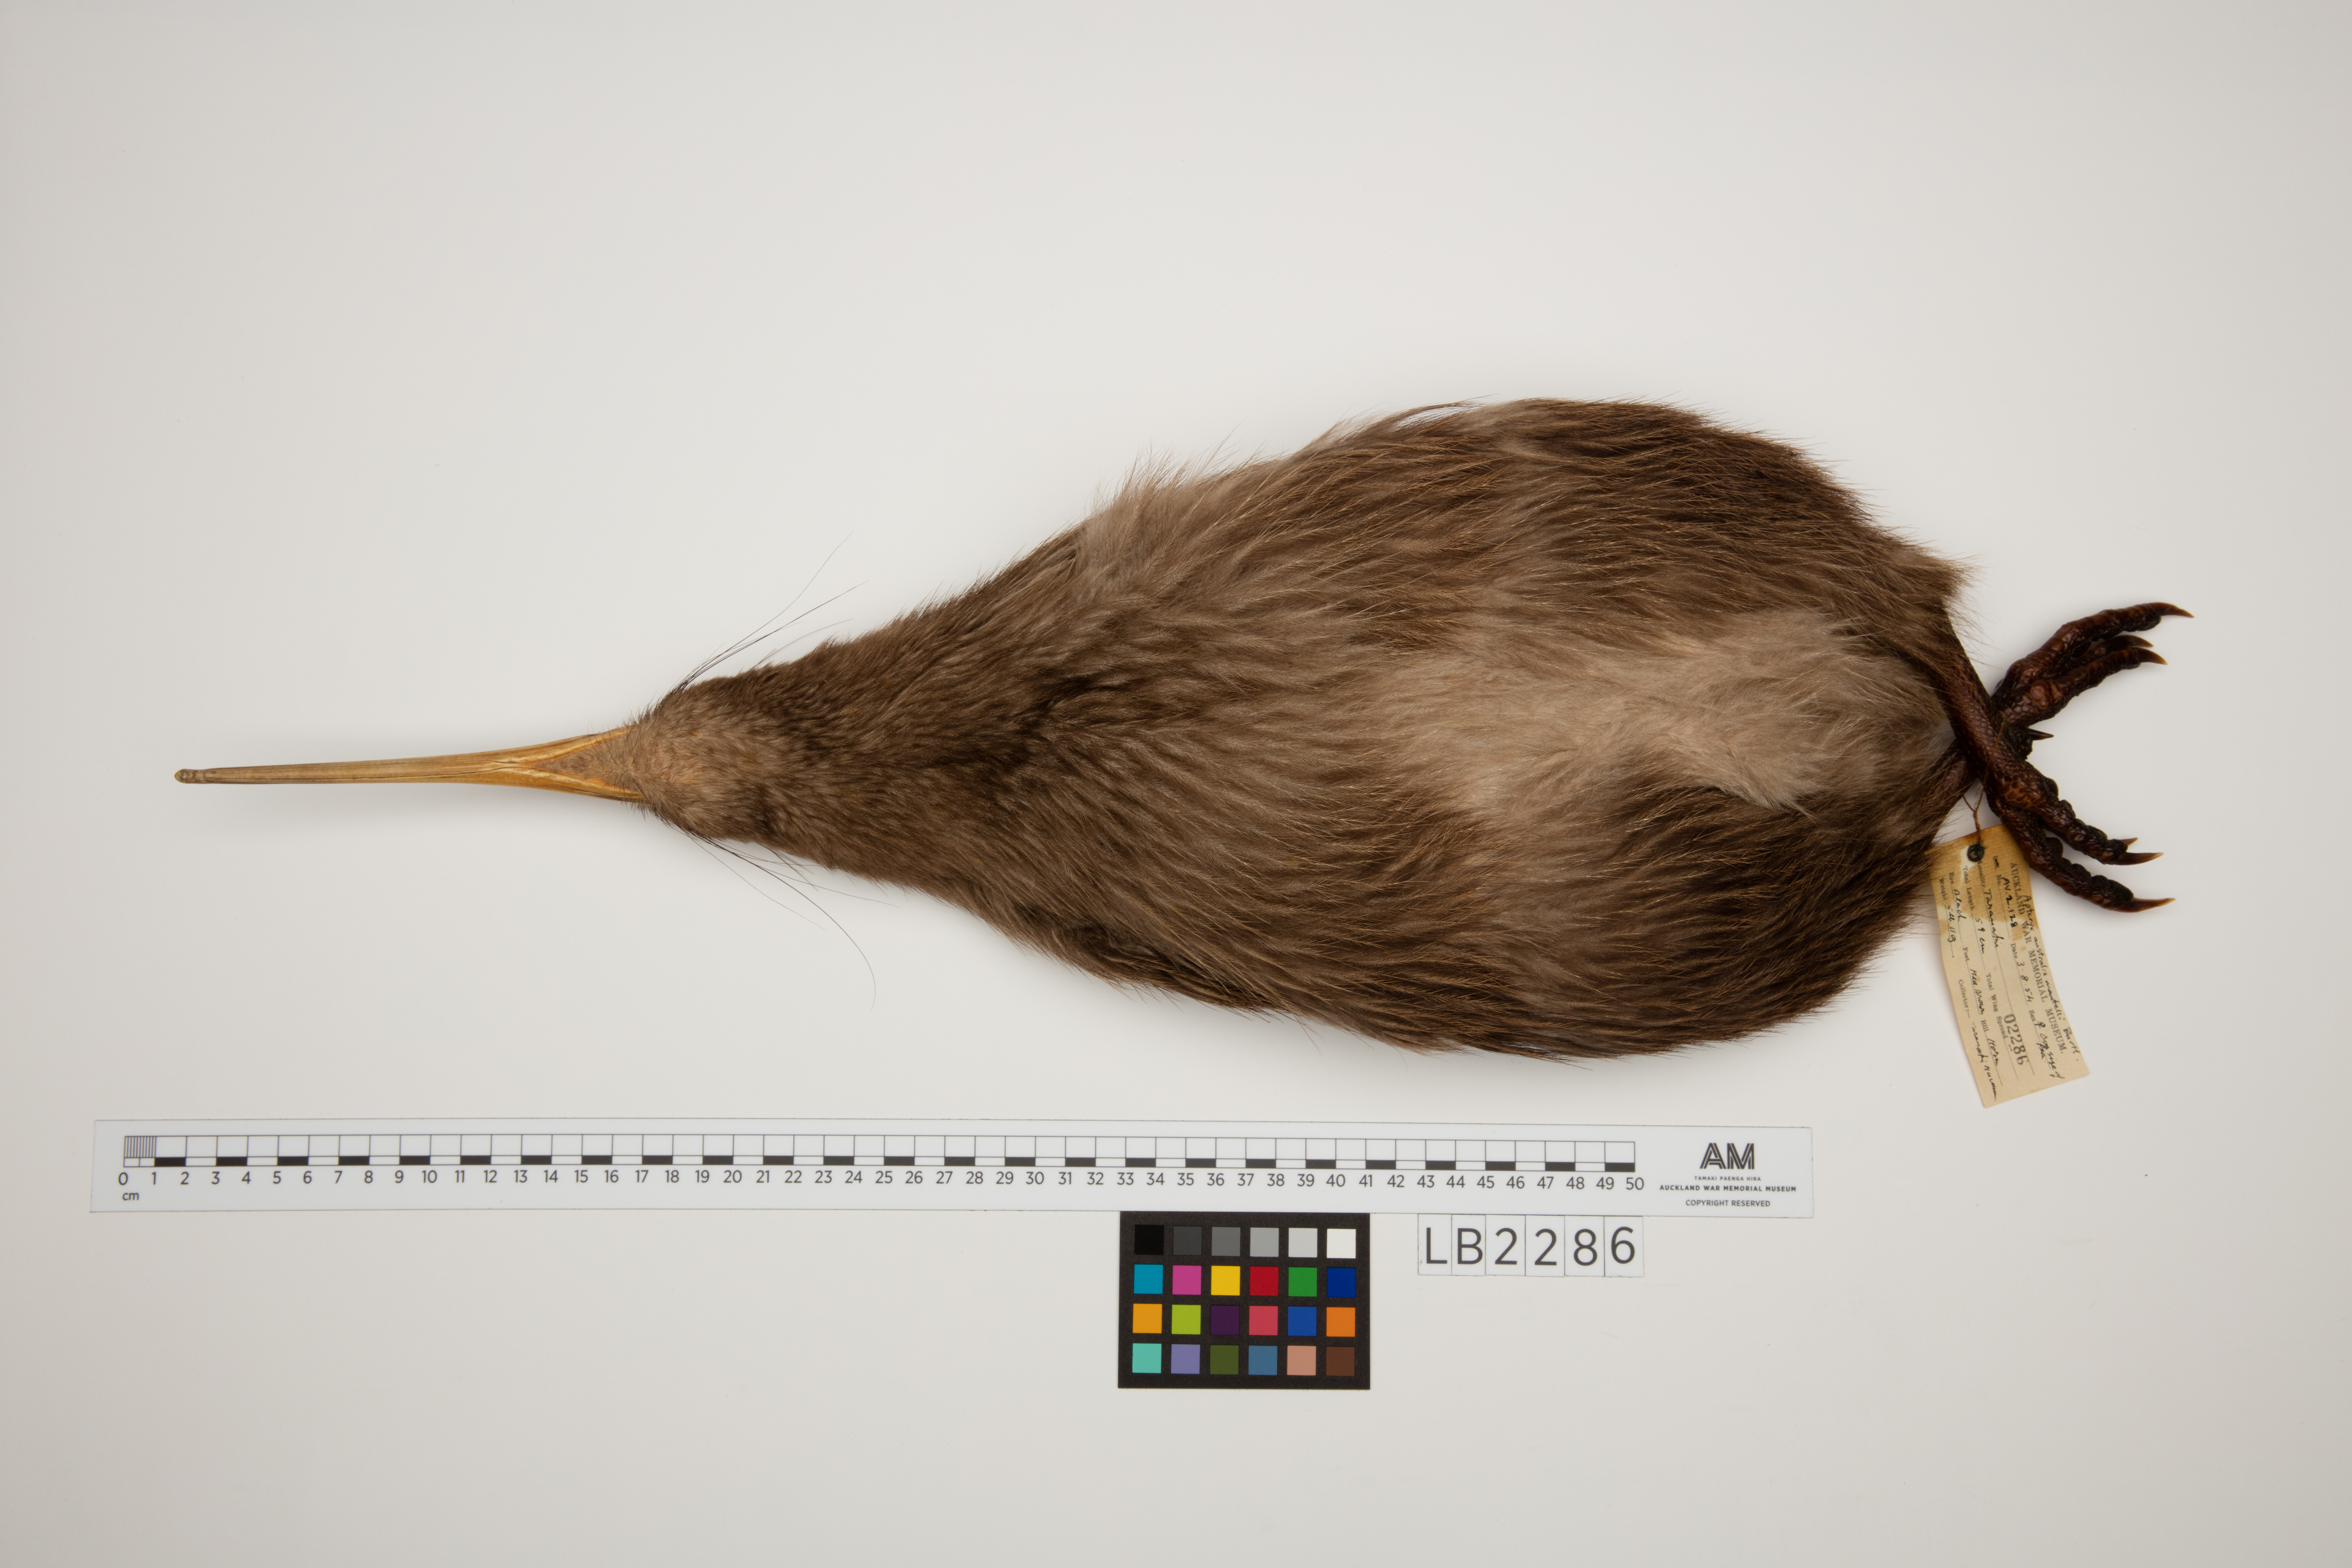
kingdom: Animalia
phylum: Chordata
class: Aves
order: Apterygiformes
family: Apterygidae
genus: Apteryx
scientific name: Apteryx mantelli
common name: North island brown kiwi
